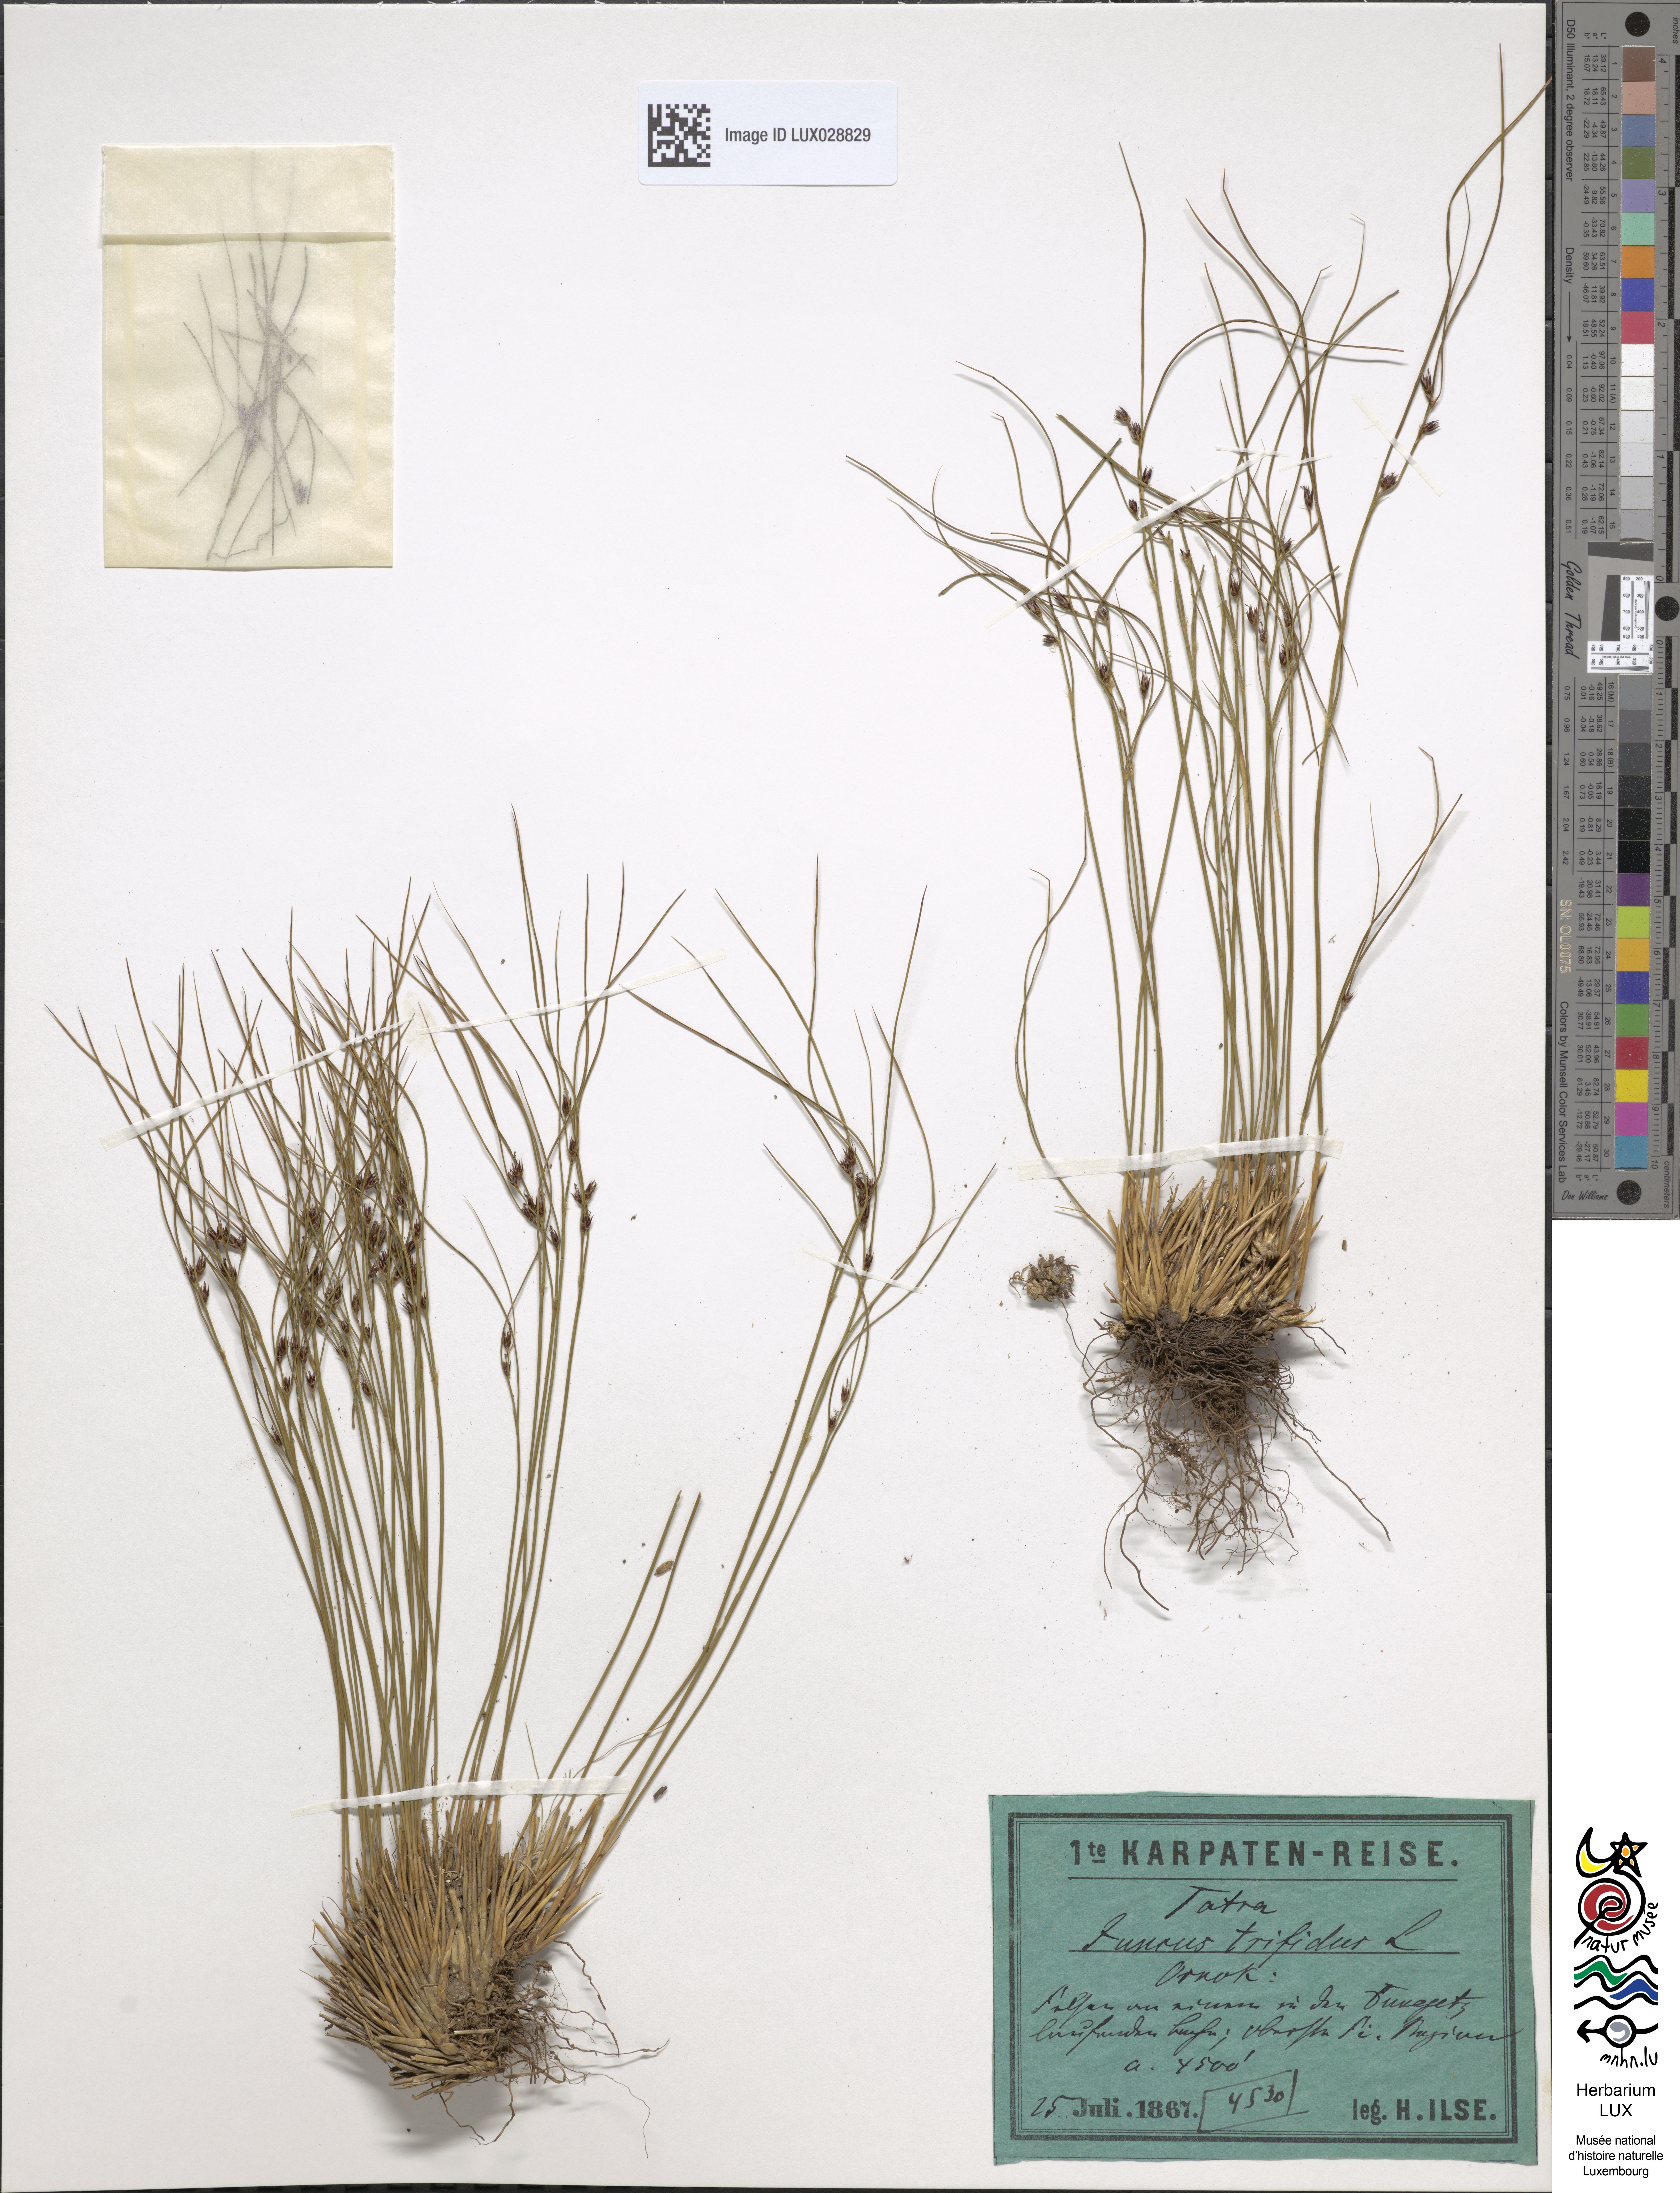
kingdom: Plantae
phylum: Tracheophyta
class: Liliopsida
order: Poales
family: Juncaceae
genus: Oreojuncus
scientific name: Oreojuncus trifidus
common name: Highland rush
